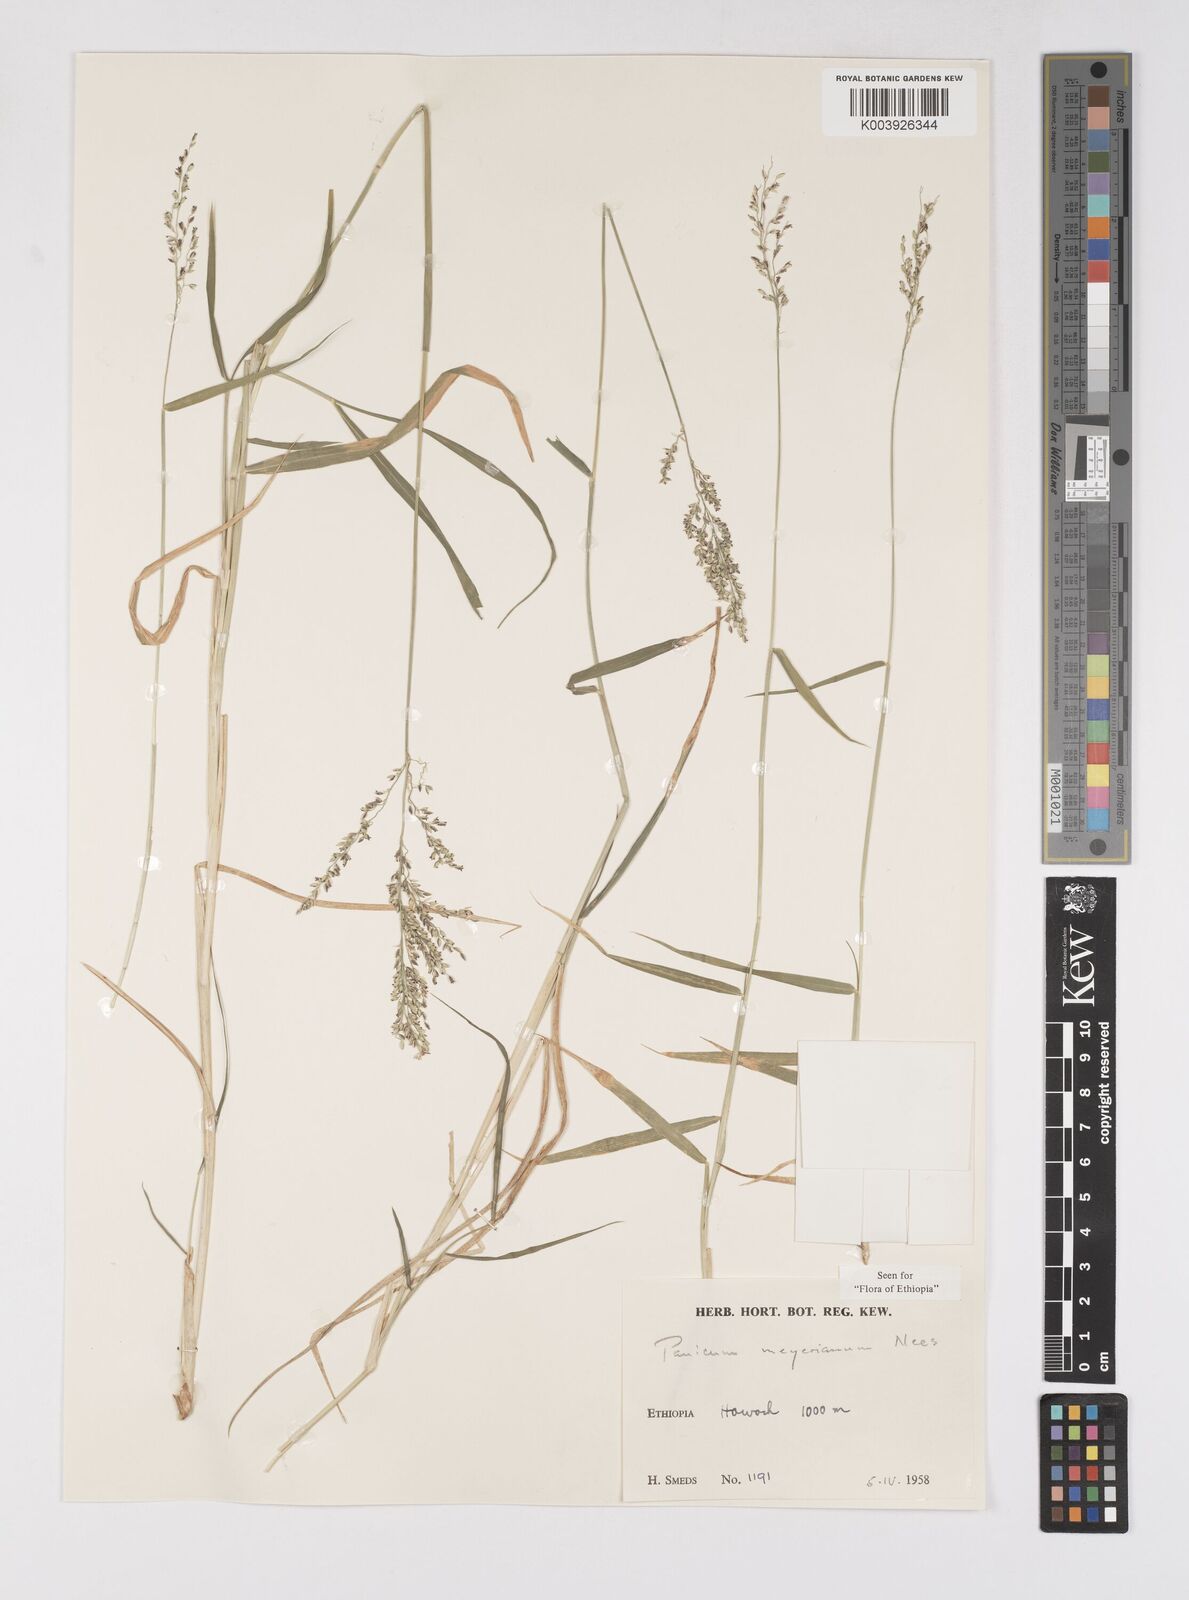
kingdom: Plantae
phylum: Tracheophyta
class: Liliopsida
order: Poales
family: Poaceae
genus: Eriochloa
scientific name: Eriochloa meyeriana
